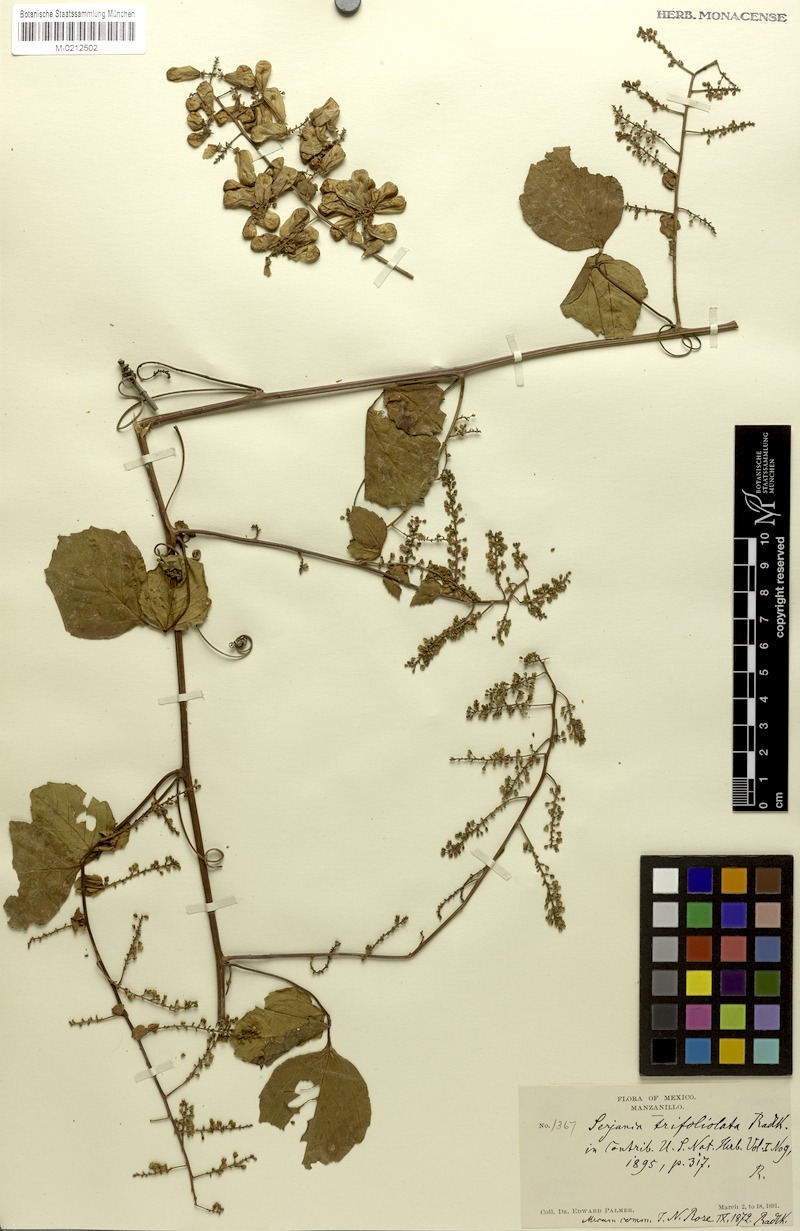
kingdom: Plantae
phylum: Tracheophyta
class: Magnoliopsida
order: Sapindales
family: Sapindaceae
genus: Serjania
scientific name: Serjania trifoliolata
